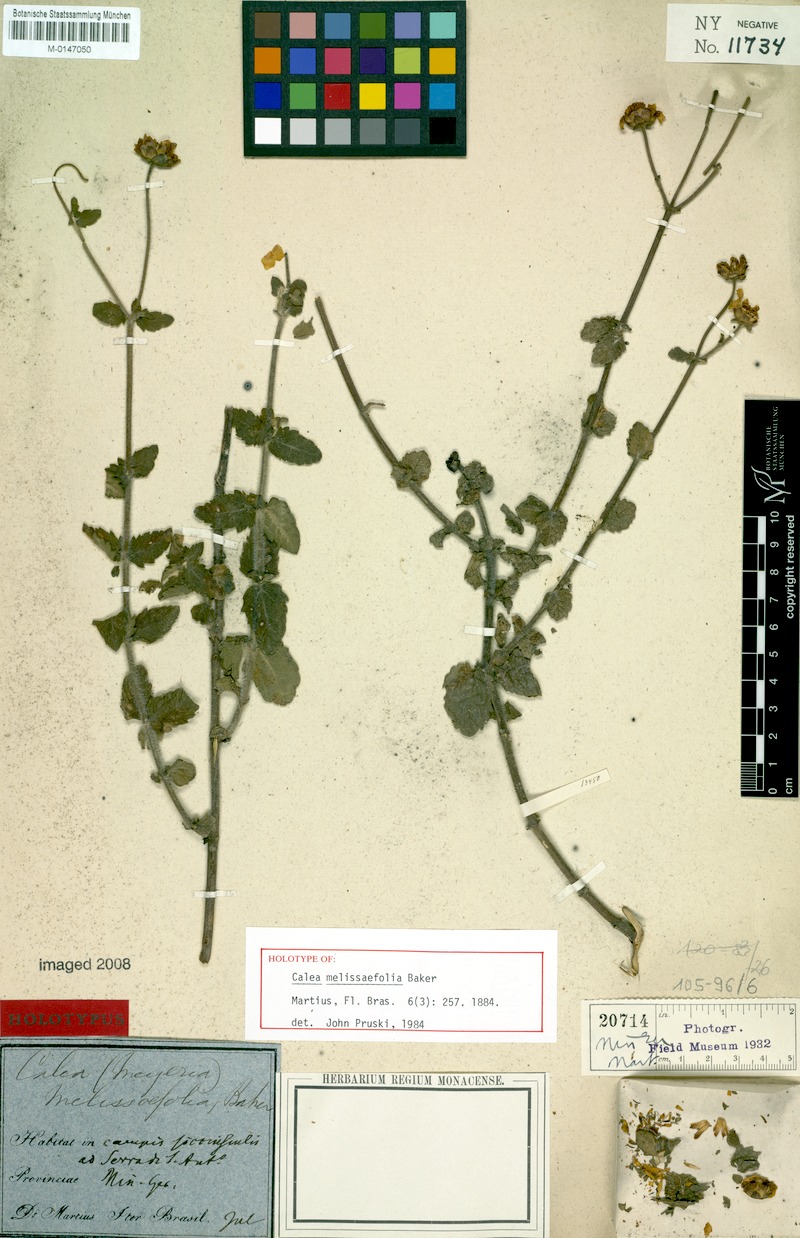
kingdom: Plantae
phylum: Tracheophyta
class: Magnoliopsida
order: Asterales
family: Asteraceae
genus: Calea
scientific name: Calea melissifolia
